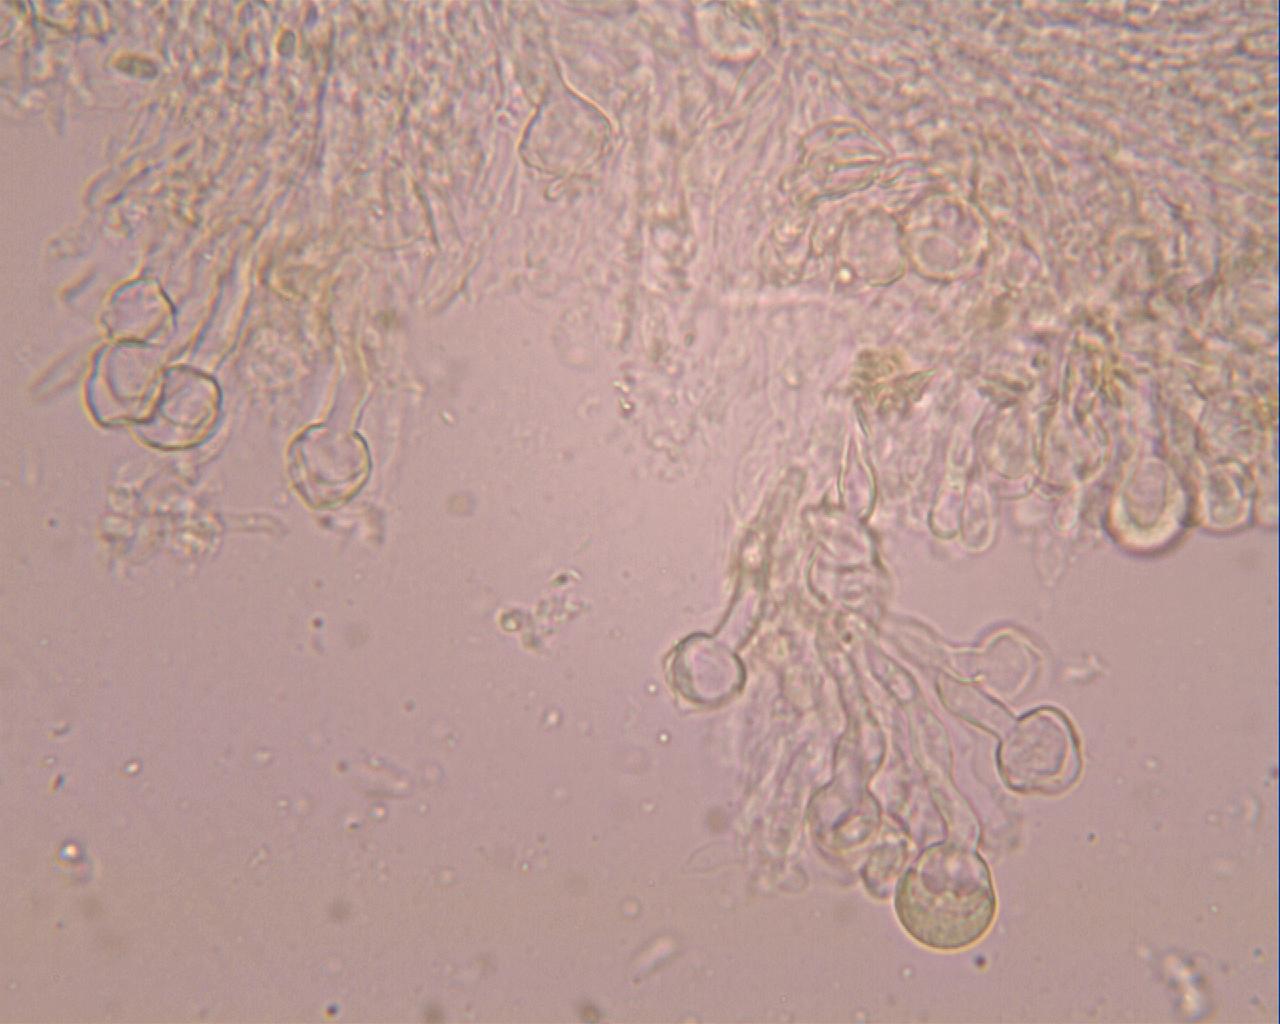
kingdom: Fungi
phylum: Basidiomycota
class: Agaricomycetes
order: Hymenochaetales
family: Rickenellaceae
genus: Resinicium
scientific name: Resinicium bicolor
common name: almindelig vokstand
